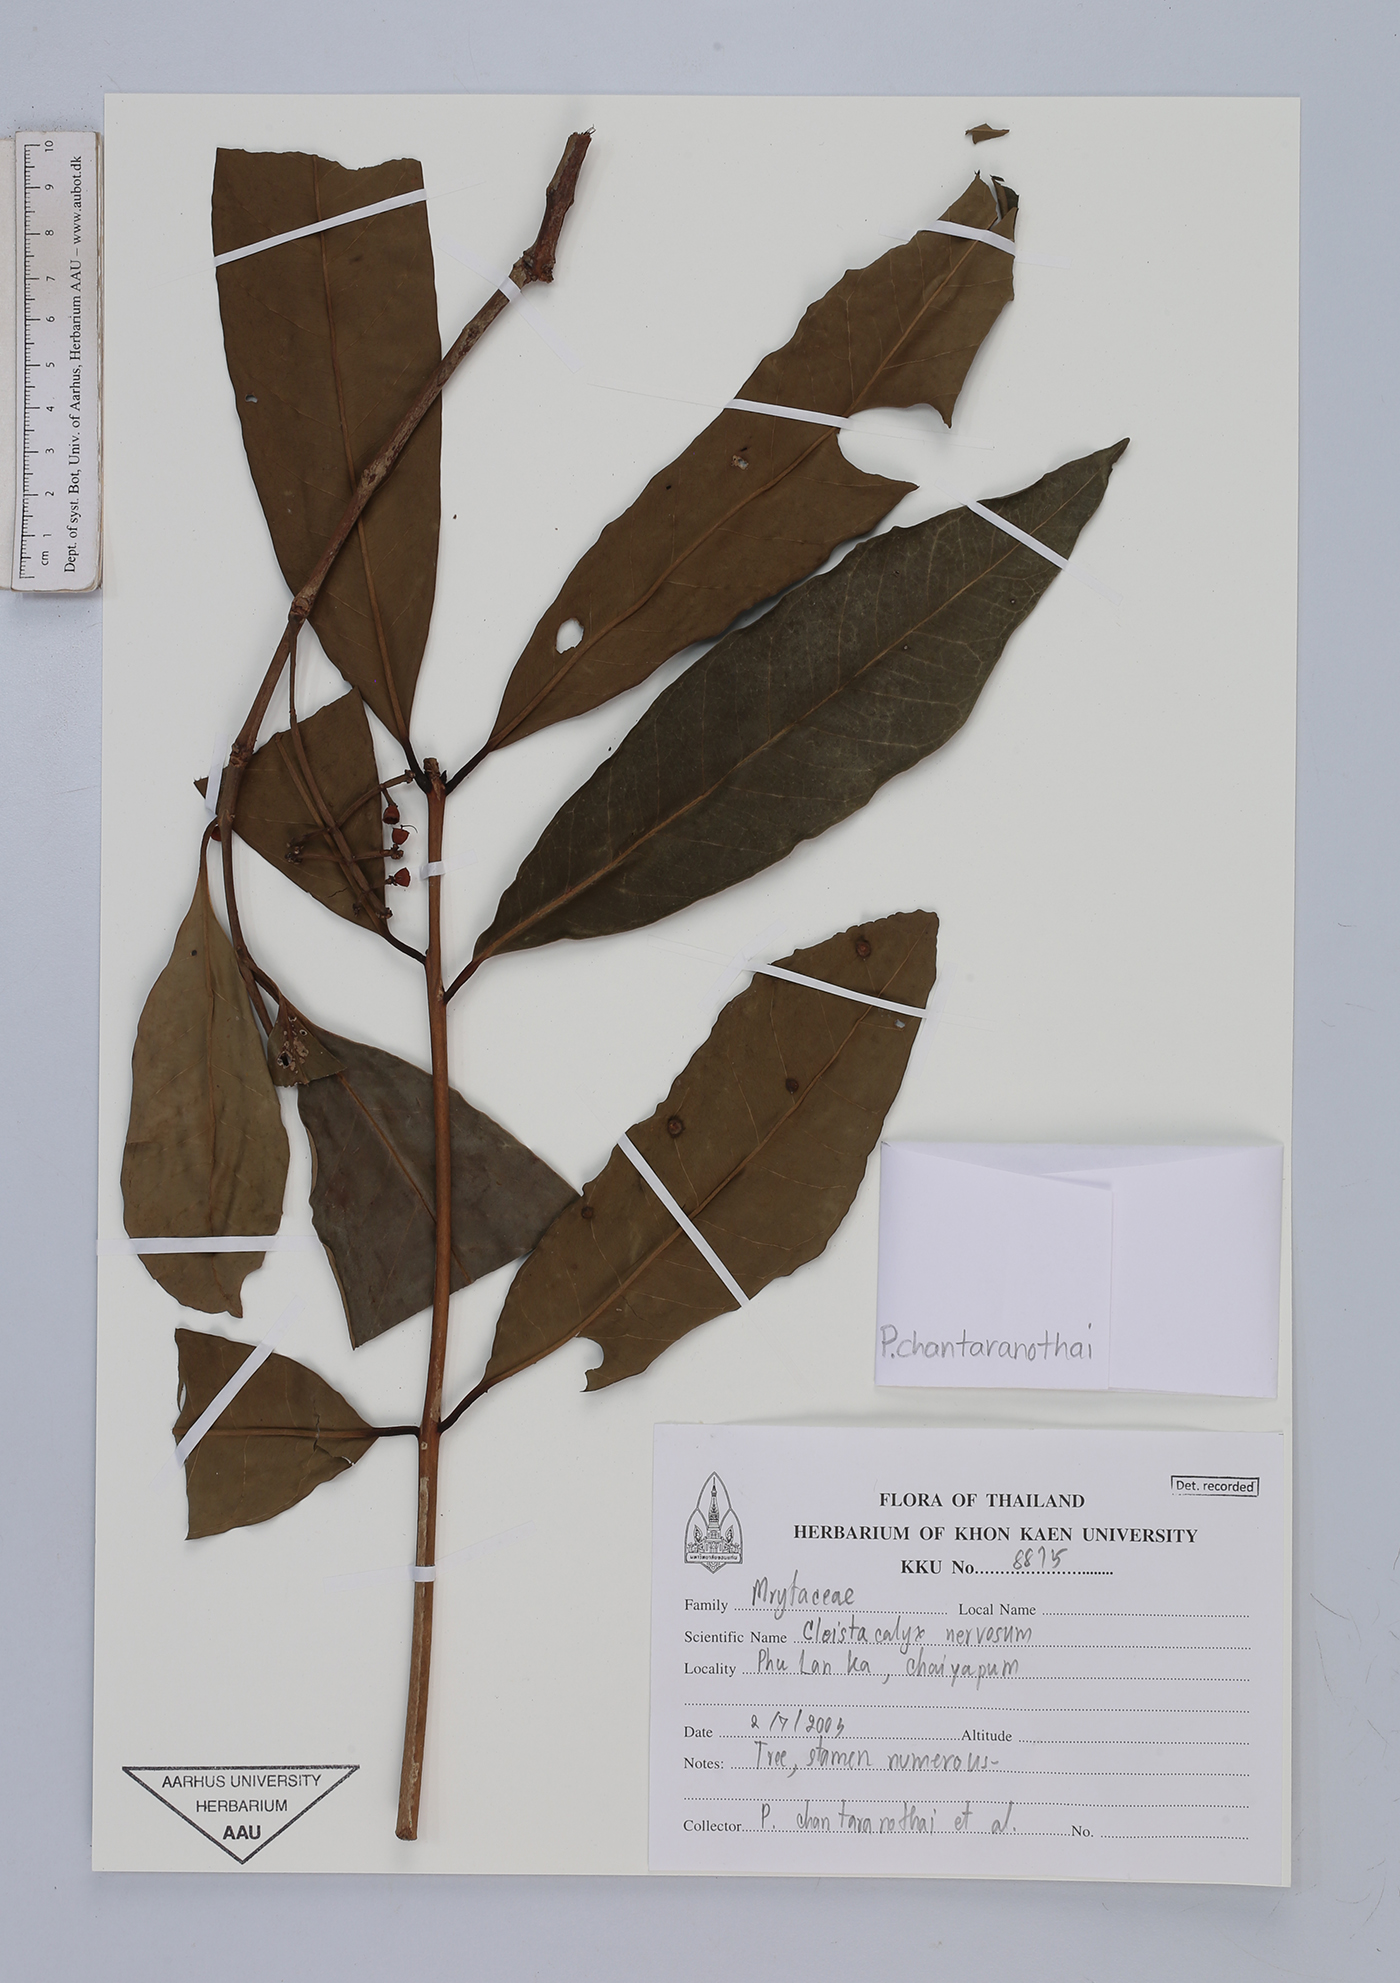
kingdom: Plantae
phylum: Tracheophyta
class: Magnoliopsida
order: Myrtales
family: Myrtaceae
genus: Syzygium
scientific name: Syzygium nervosum
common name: Daly river satinash
